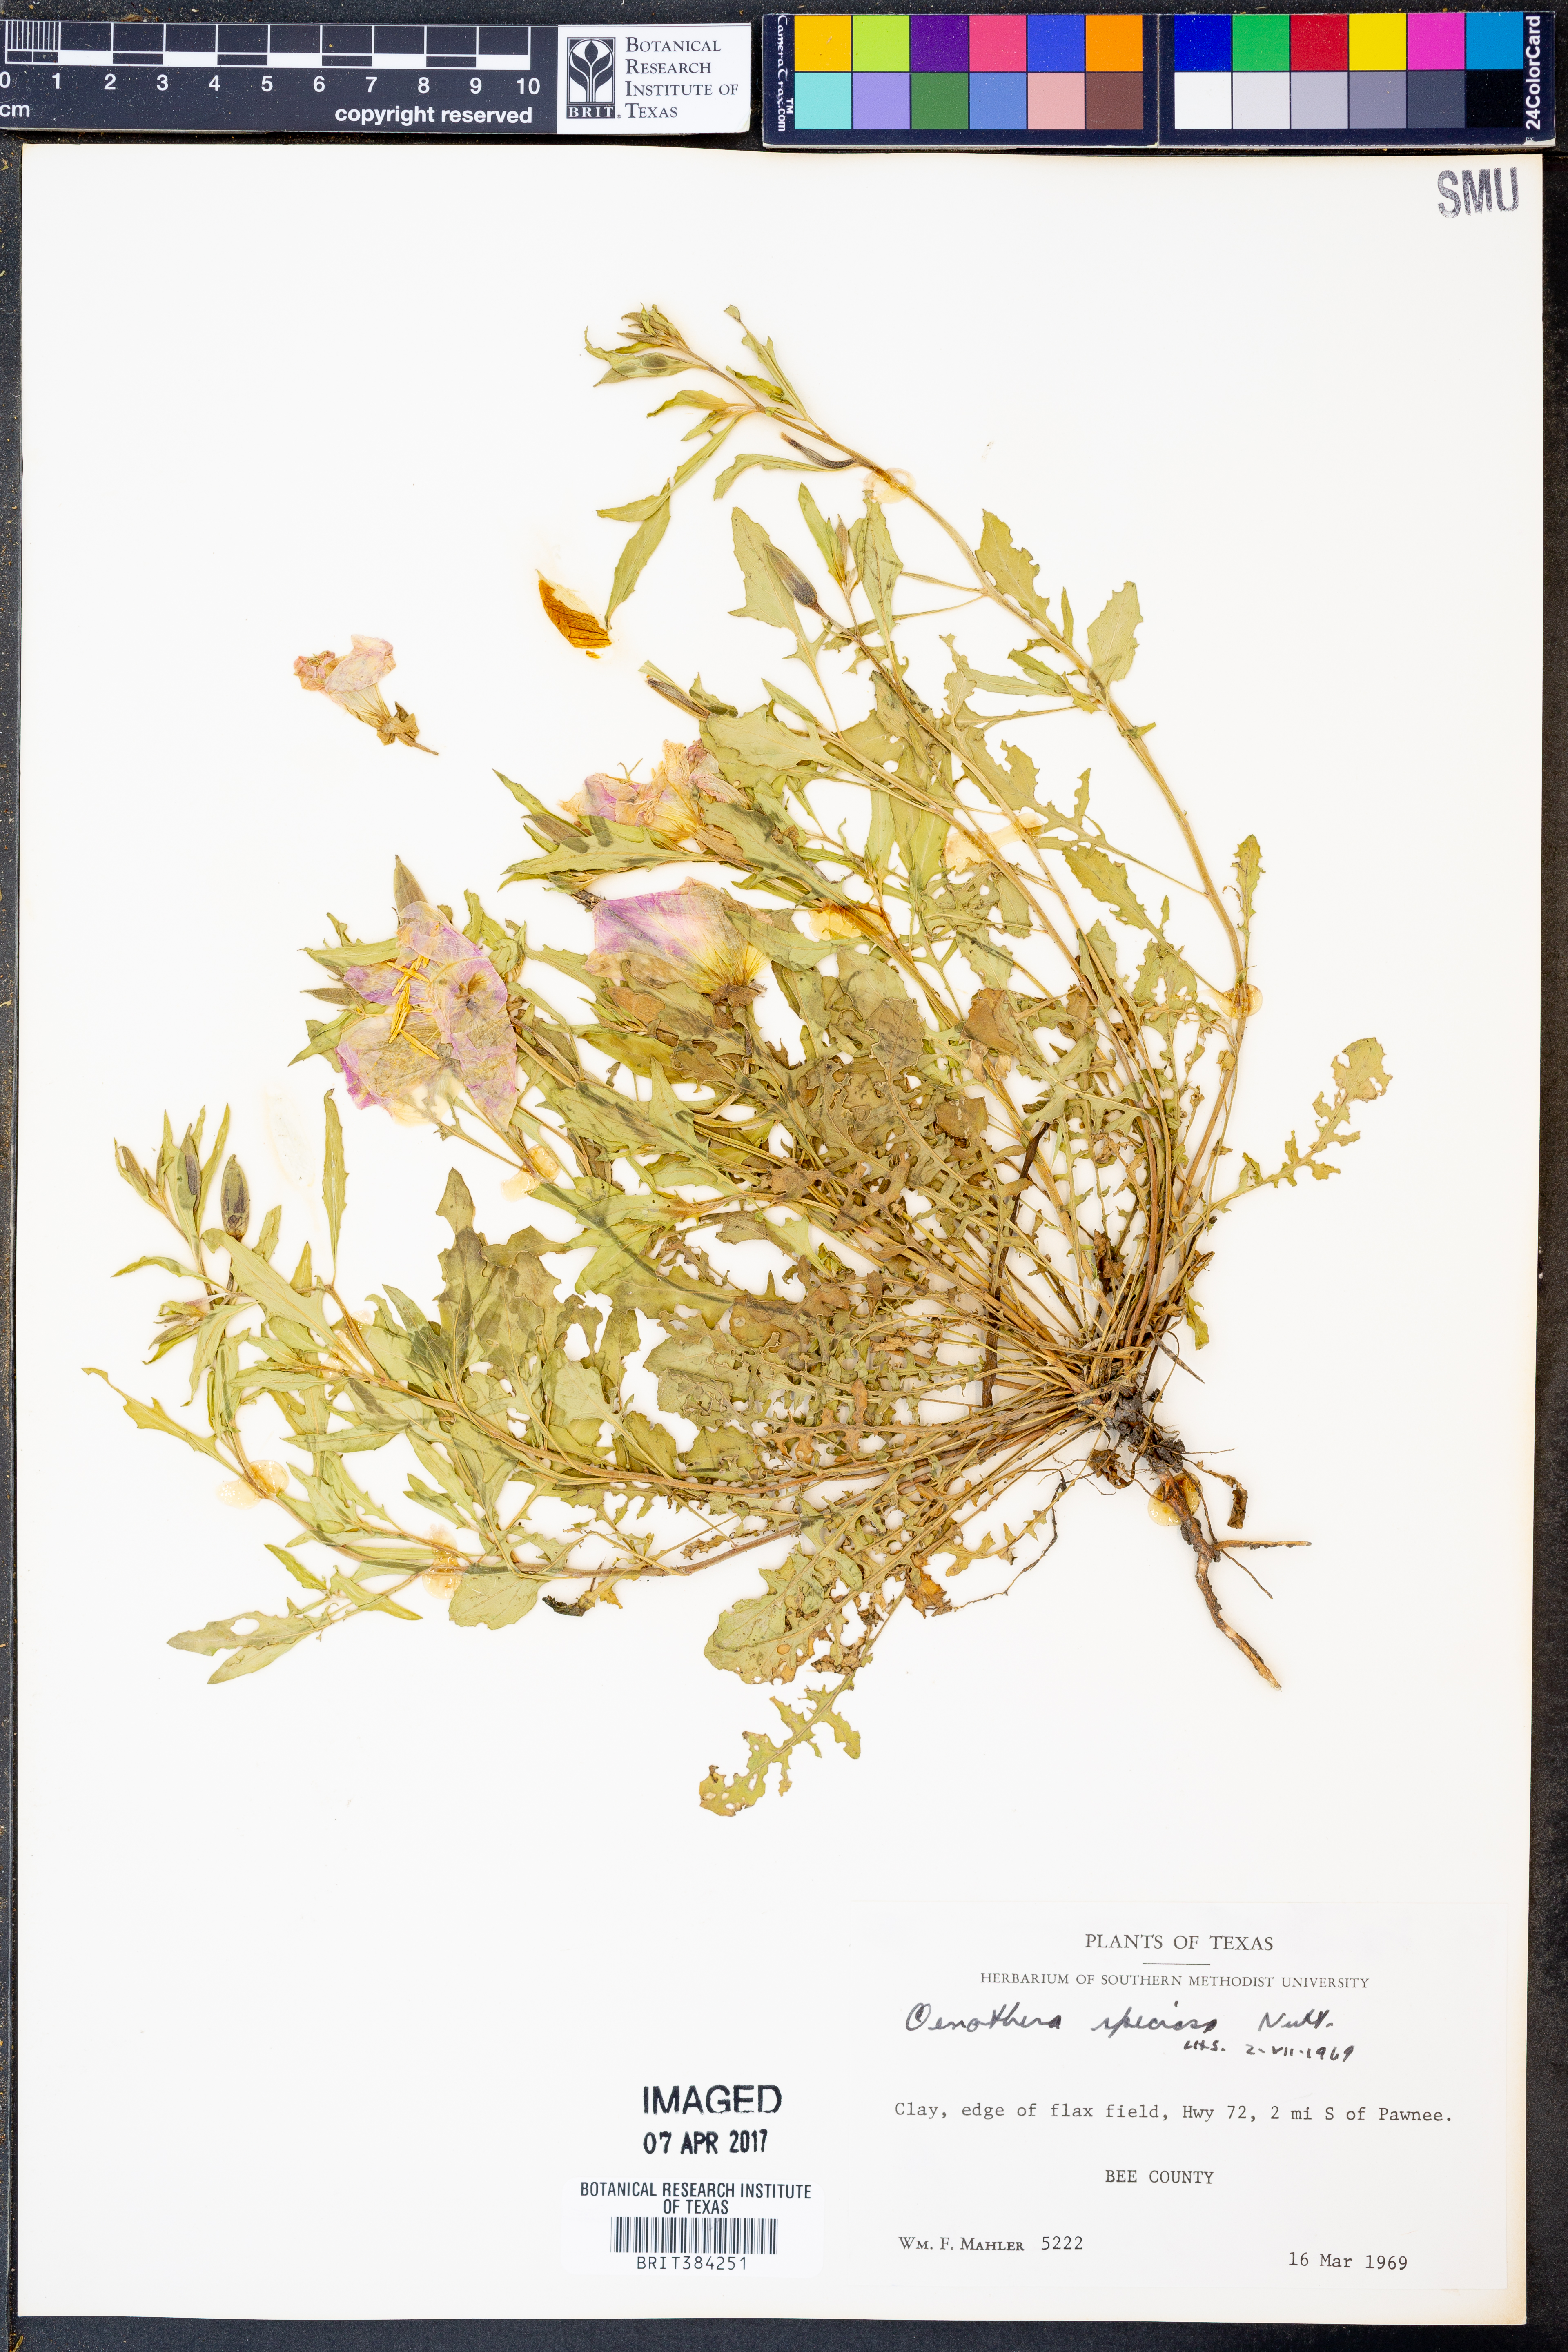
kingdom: Plantae
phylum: Tracheophyta
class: Magnoliopsida
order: Myrtales
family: Onagraceae
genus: Oenothera
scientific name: Oenothera speciosa
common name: White evening-primrose
